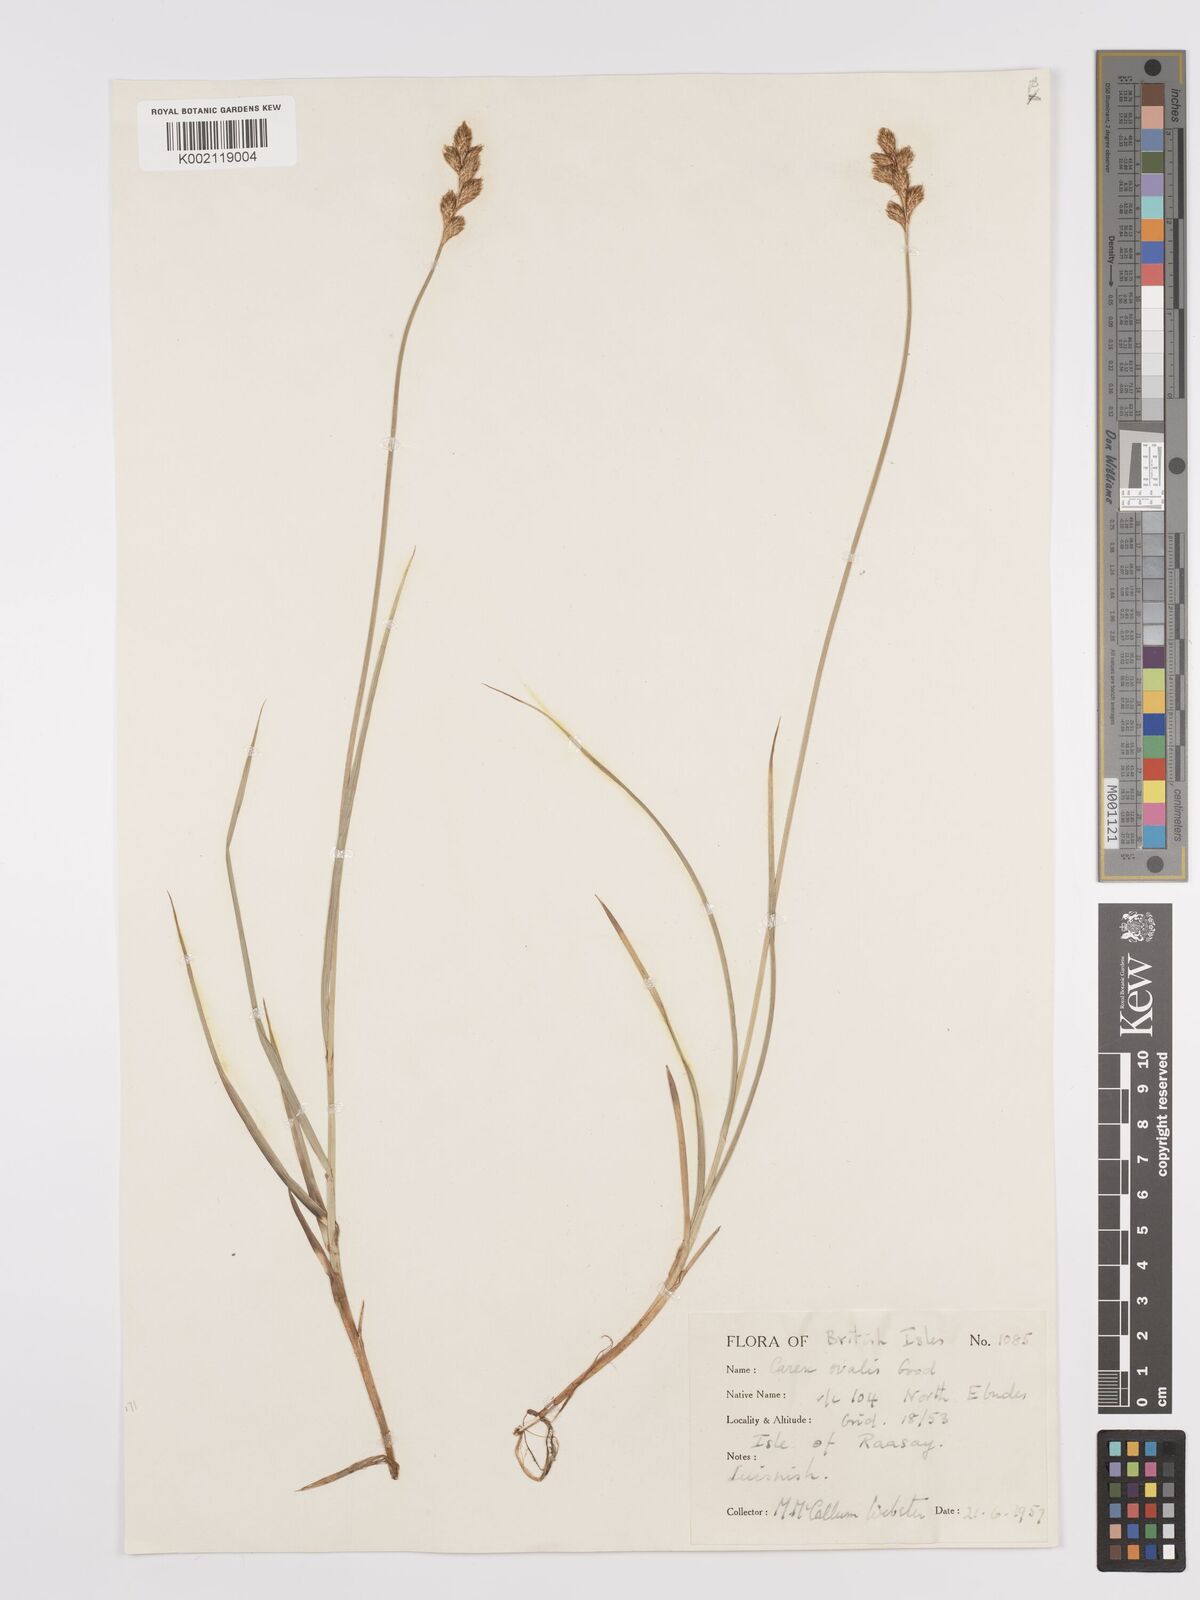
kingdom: Plantae
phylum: Tracheophyta
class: Liliopsida
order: Poales
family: Cyperaceae
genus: Carex
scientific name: Carex leporina
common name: Oval sedge
